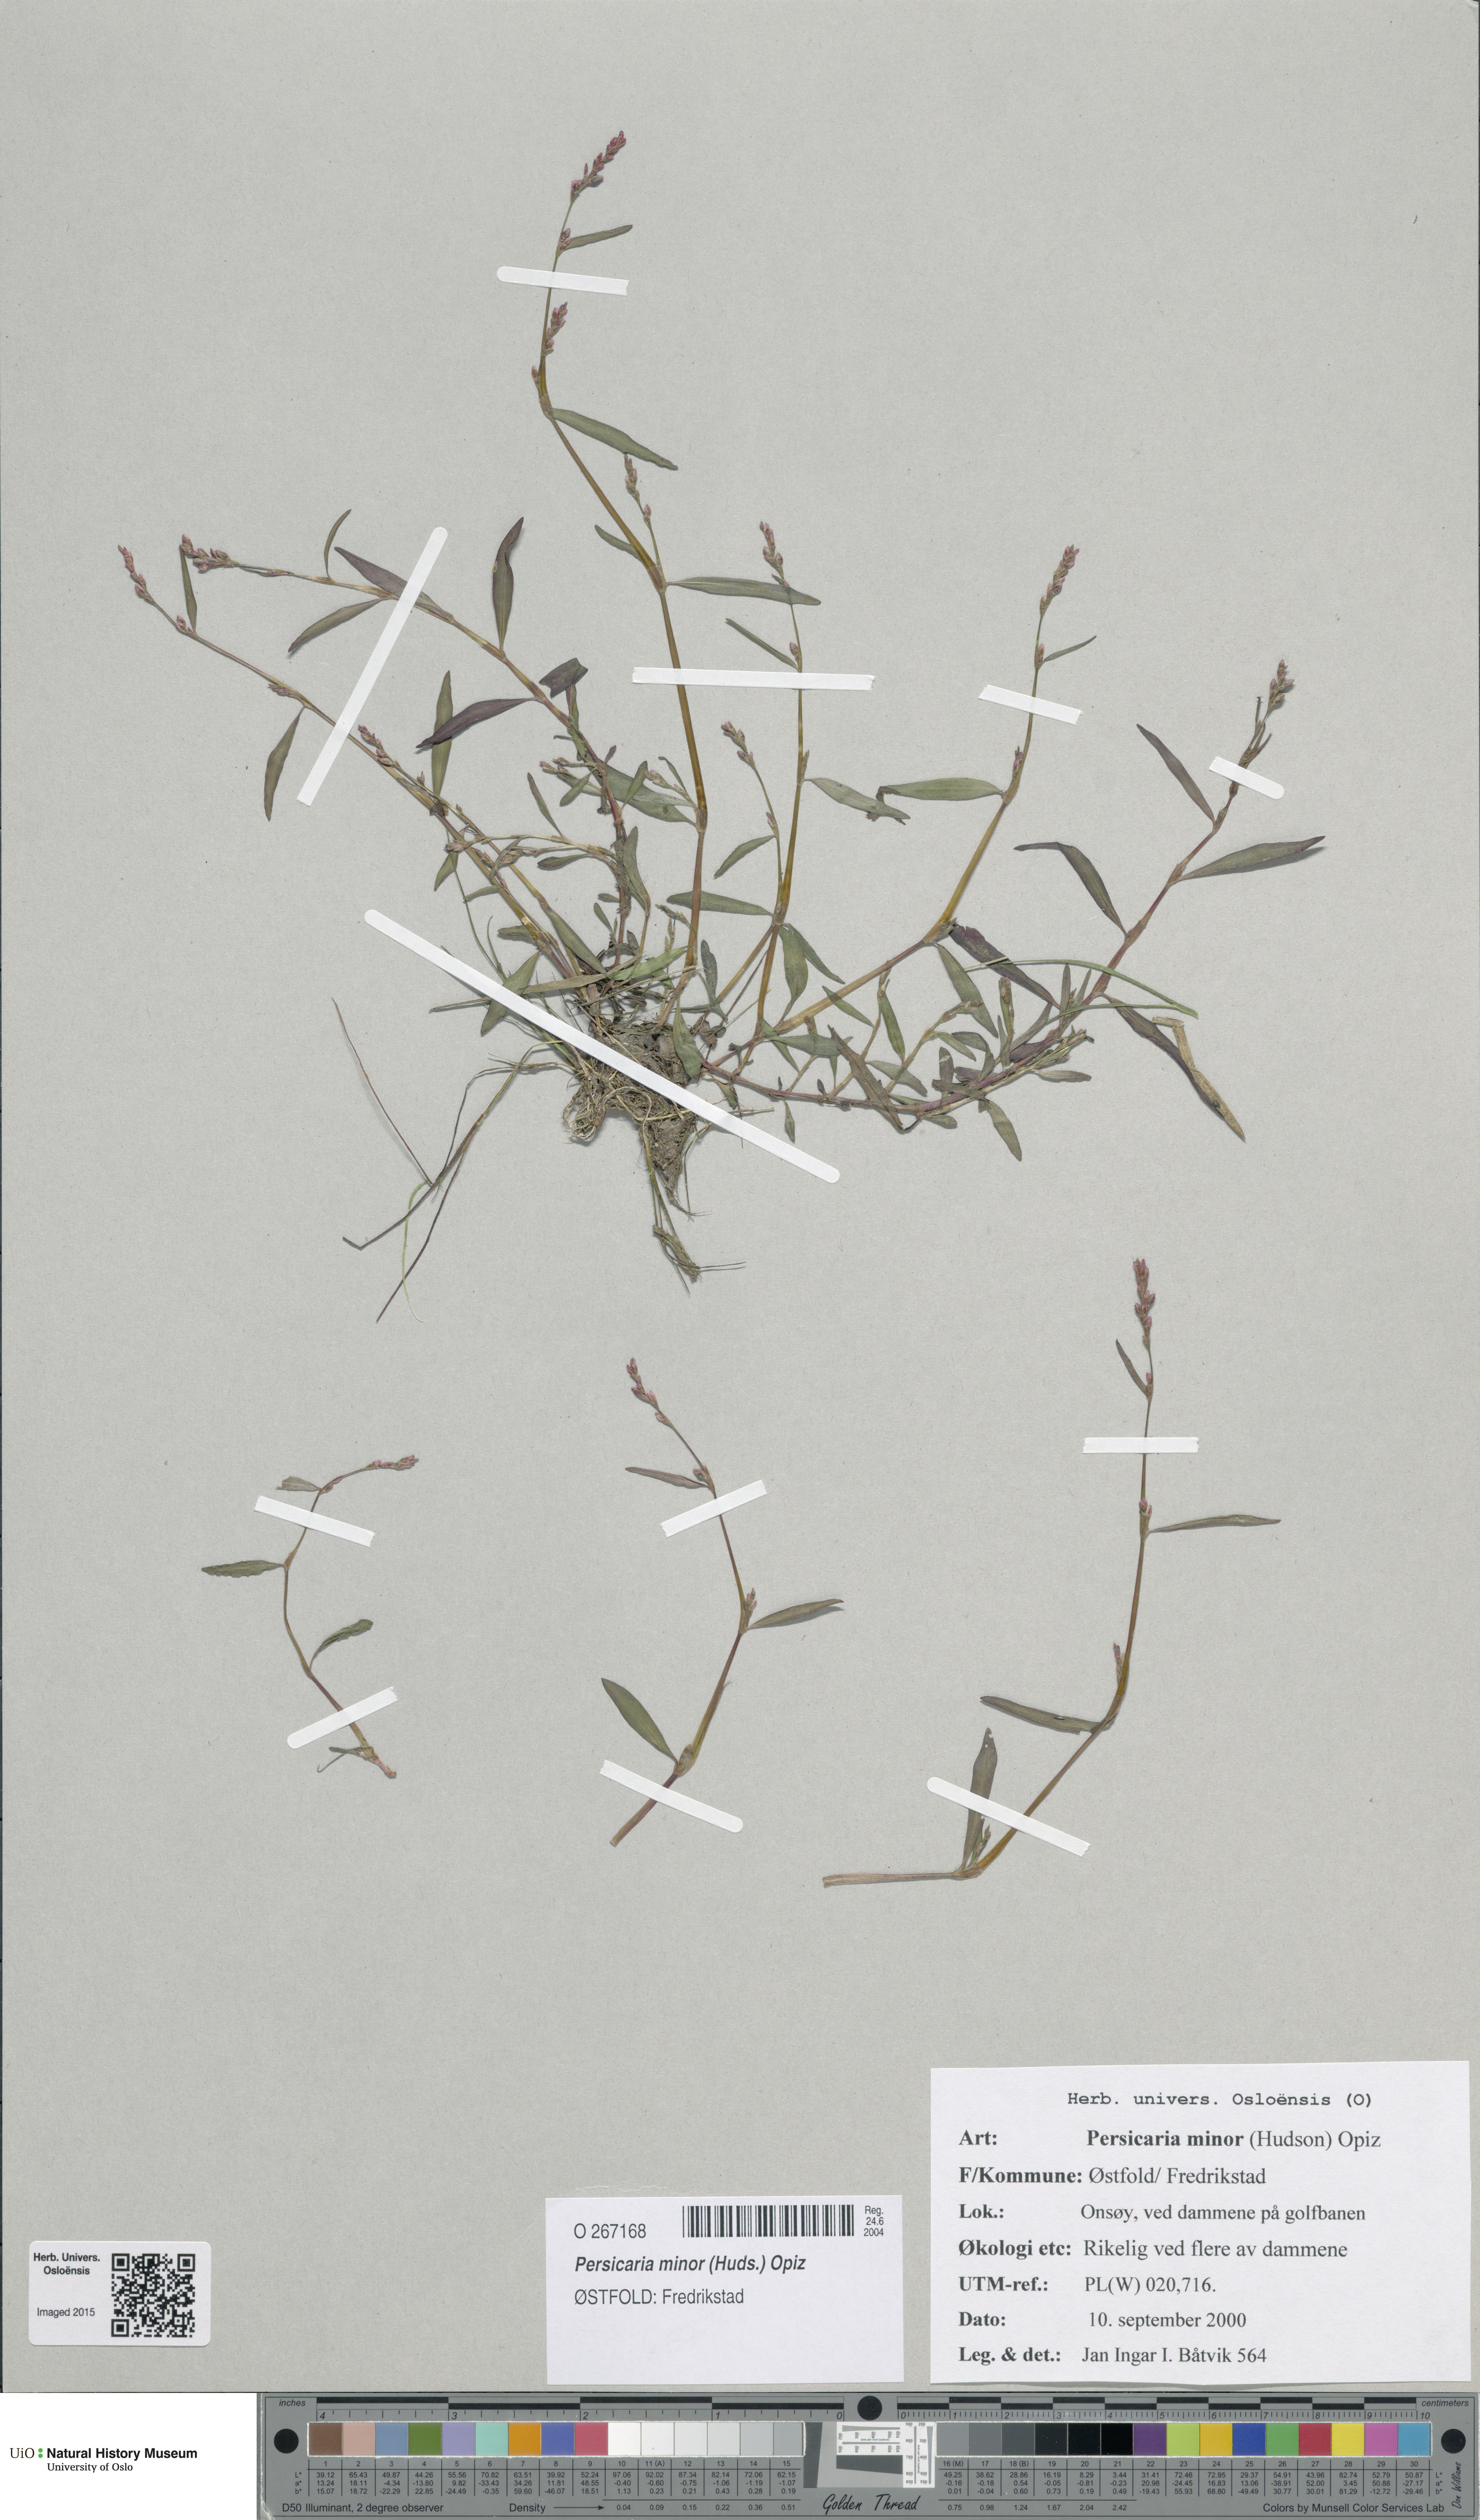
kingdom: Plantae
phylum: Tracheophyta
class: Magnoliopsida
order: Caryophyllales
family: Polygonaceae
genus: Persicaria
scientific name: Persicaria minor
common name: Small water-pepper
